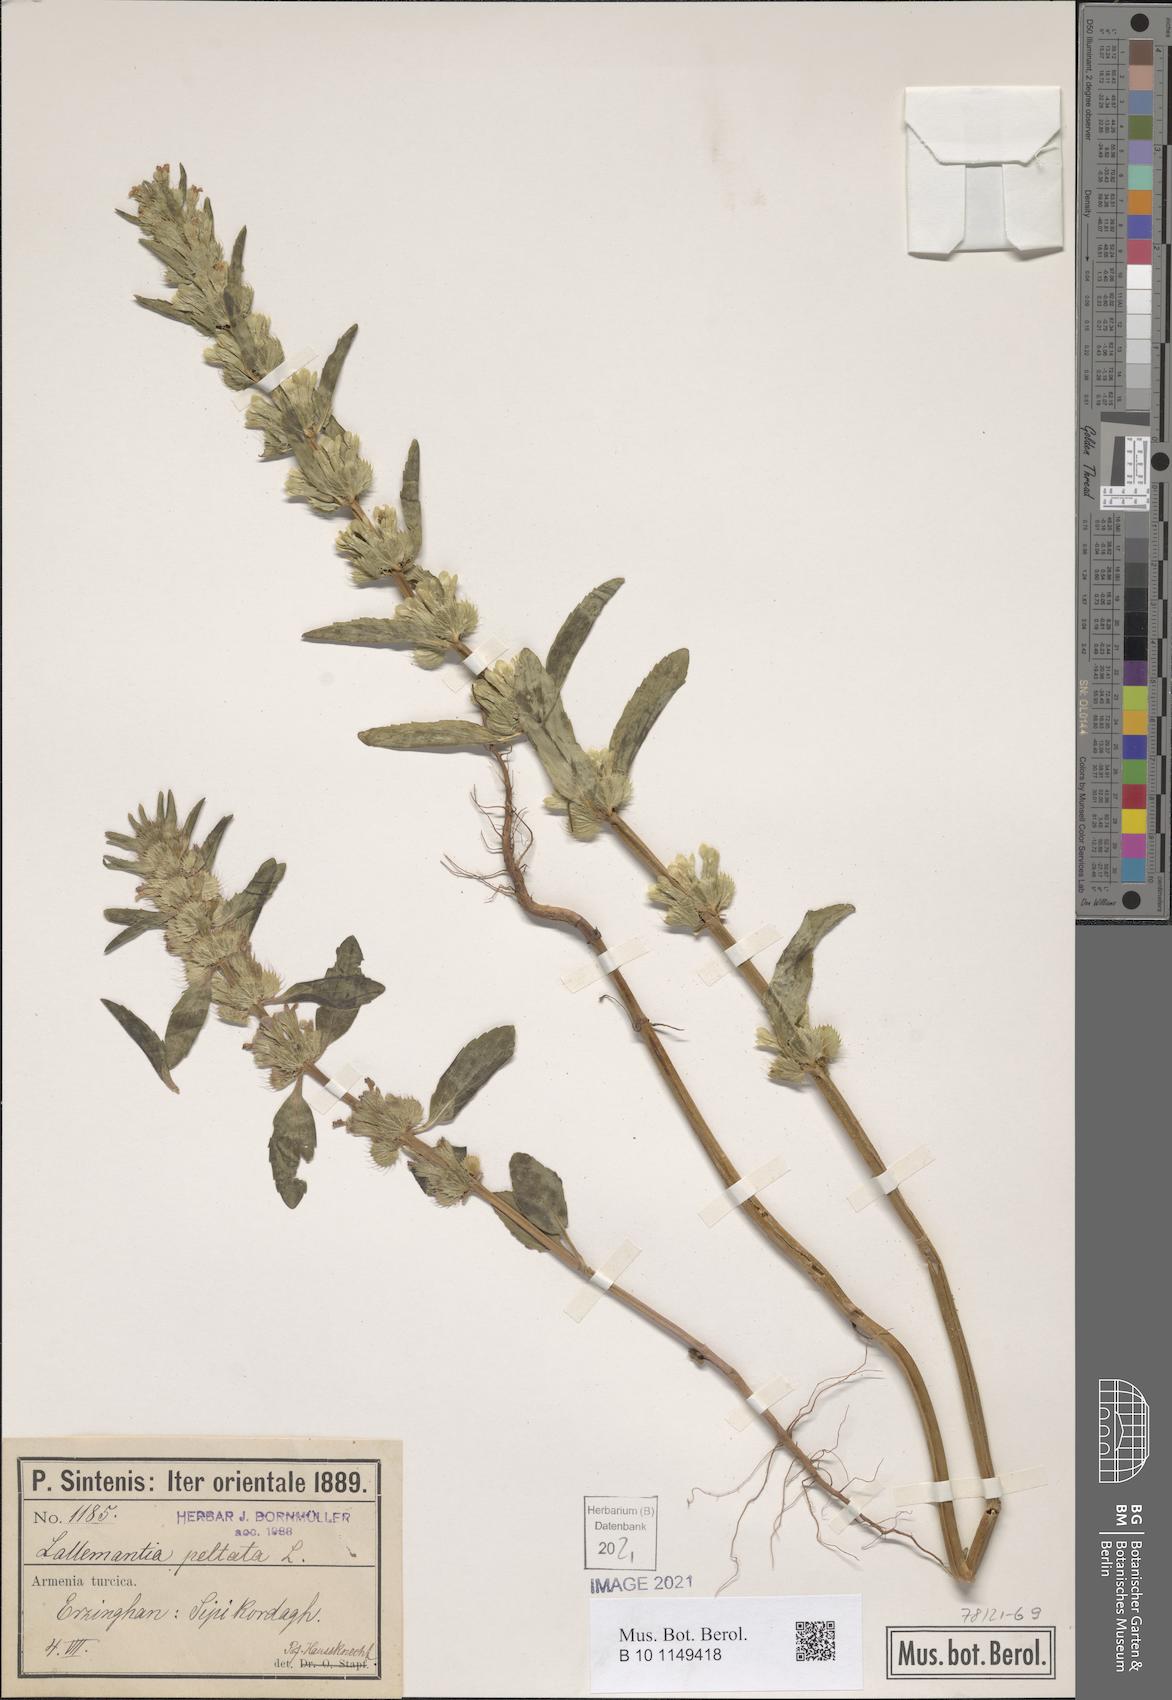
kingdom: Plantae
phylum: Tracheophyta
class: Magnoliopsida
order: Lamiales
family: Lamiaceae
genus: Lallemantia
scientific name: Lallemantia peltata
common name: Lion's heart
